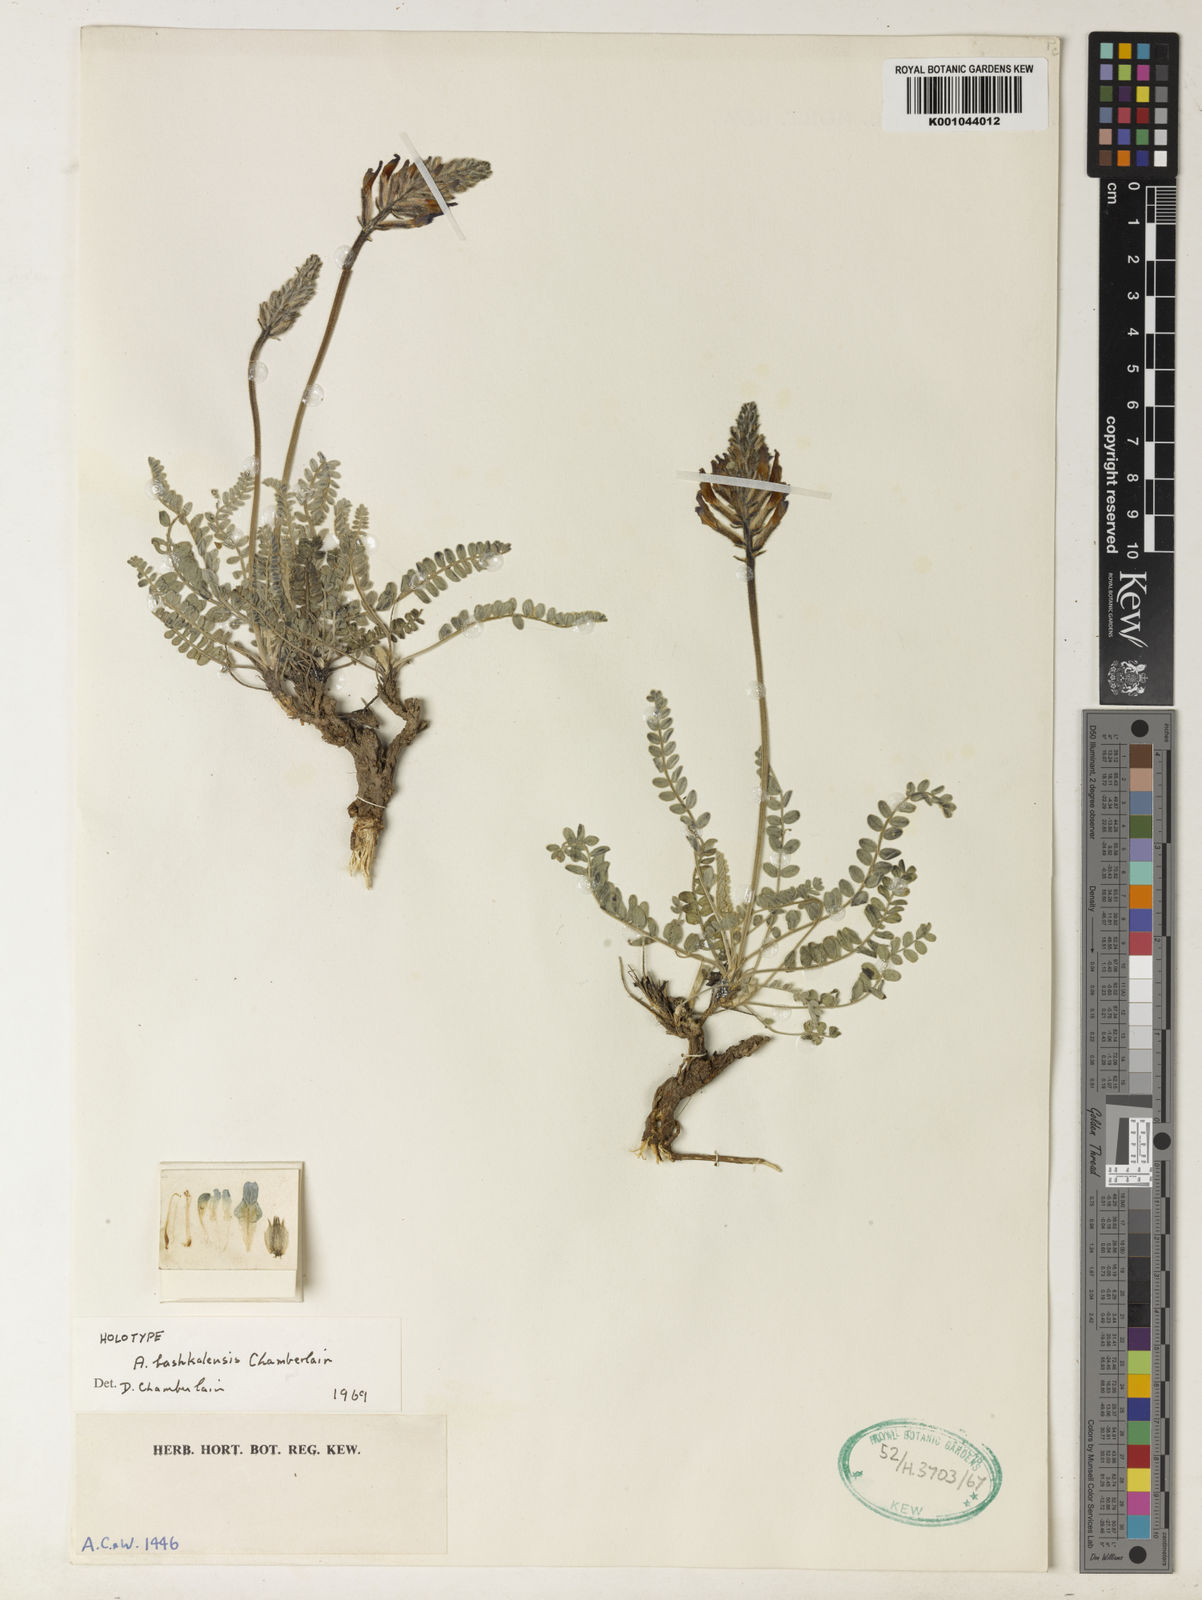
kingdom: Plantae
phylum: Tracheophyta
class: Magnoliopsida
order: Fabales
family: Fabaceae
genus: Astragalus
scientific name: Astragalus
